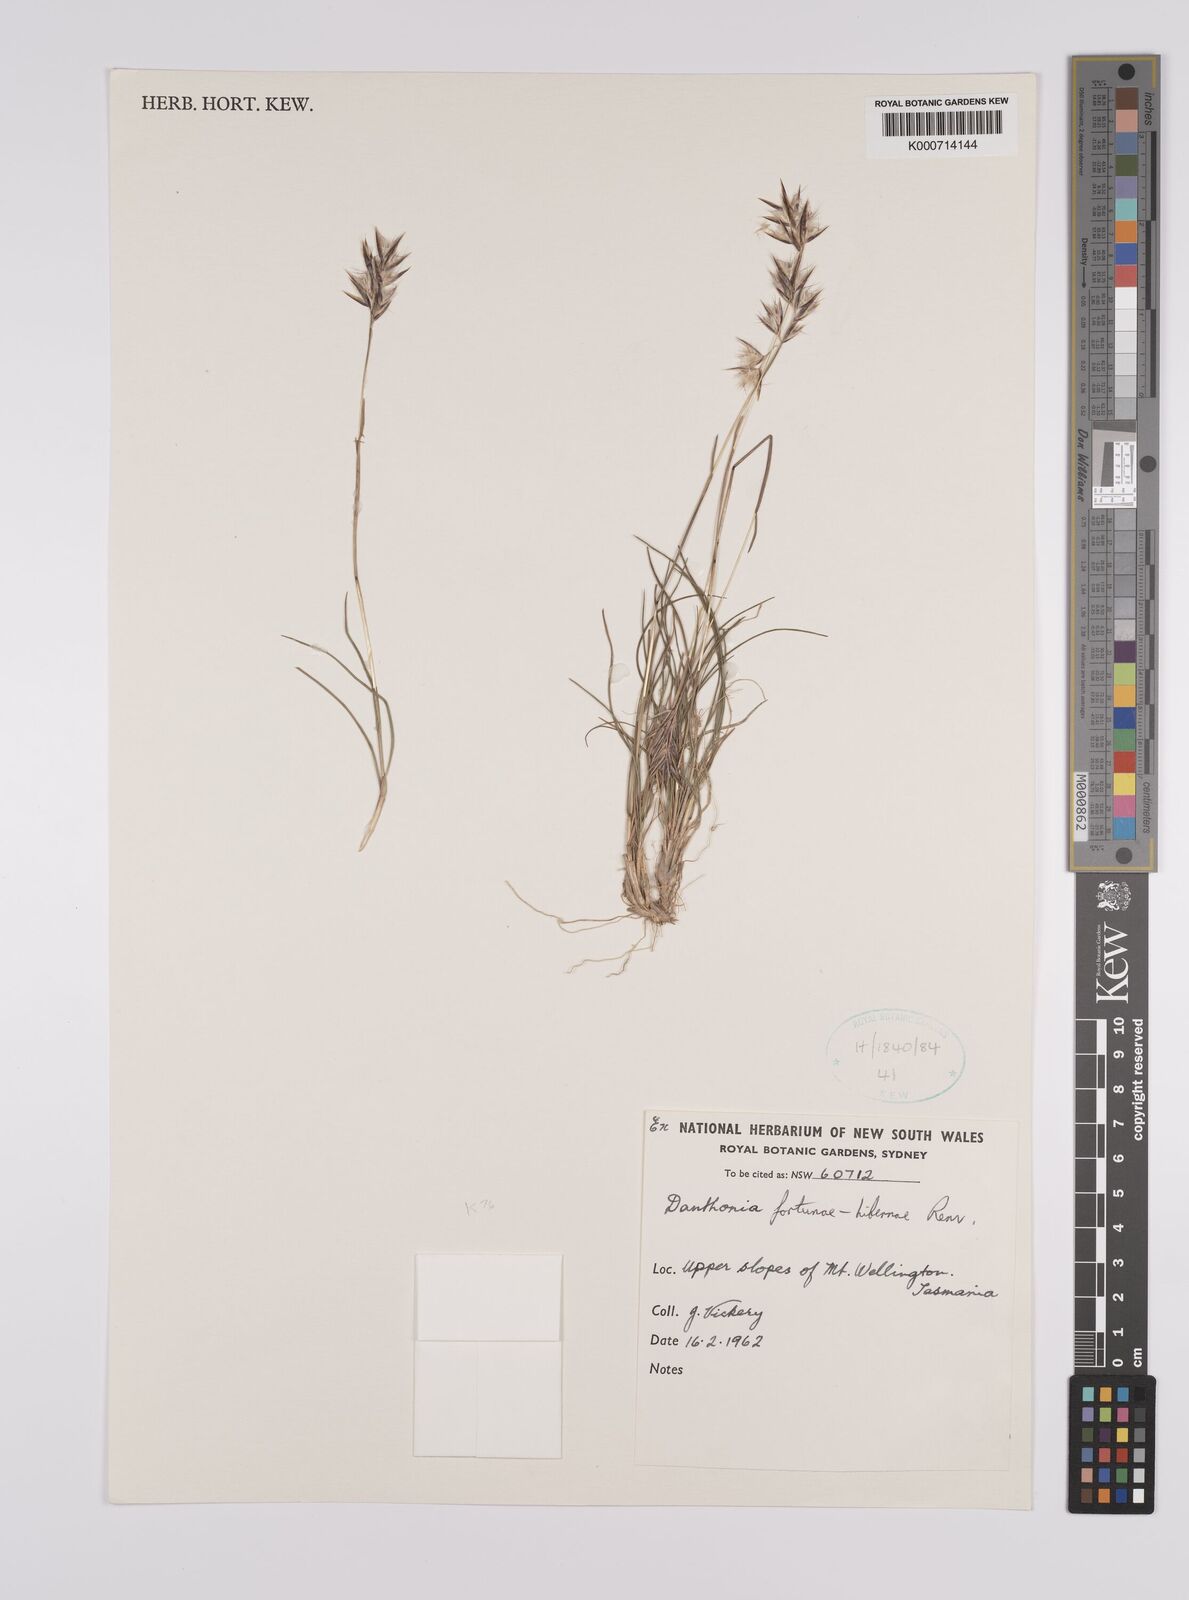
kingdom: Plantae
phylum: Tracheophyta
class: Liliopsida
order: Poales
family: Poaceae
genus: Rytidosperma
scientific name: Rytidosperma fortunae-hibernae
